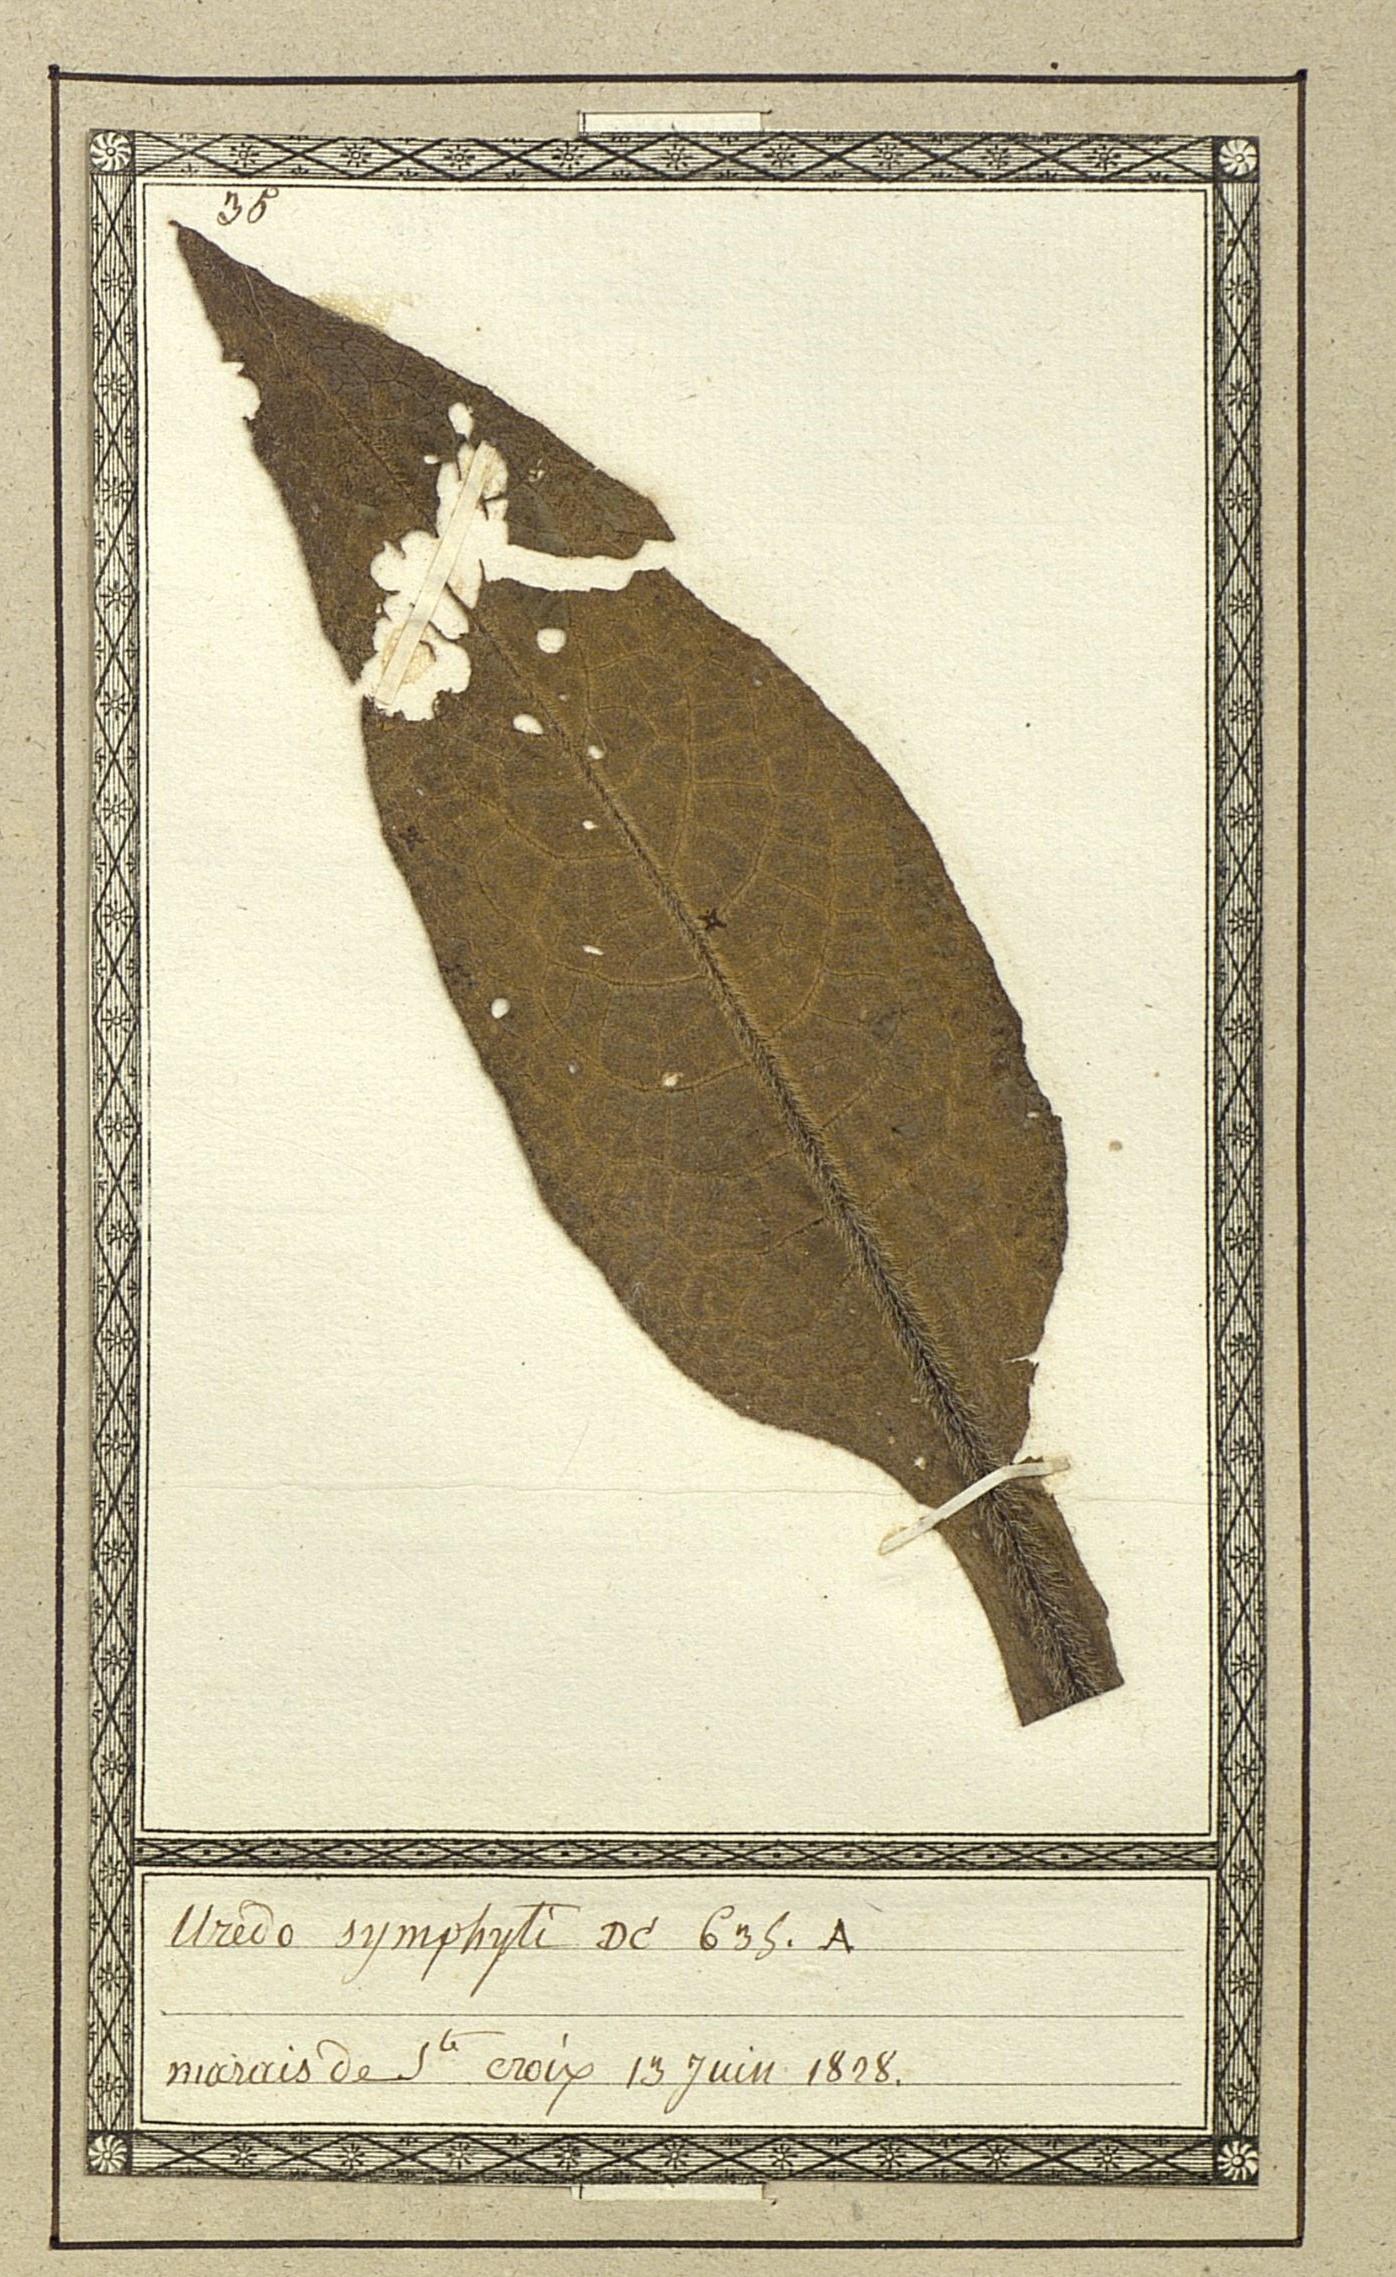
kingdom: Fungi
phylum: Basidiomycota
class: Pucciniomycetes
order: Pucciniales
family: Pucciniastraceae
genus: Pucciniastrum
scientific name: Pucciniastrum symphyti
